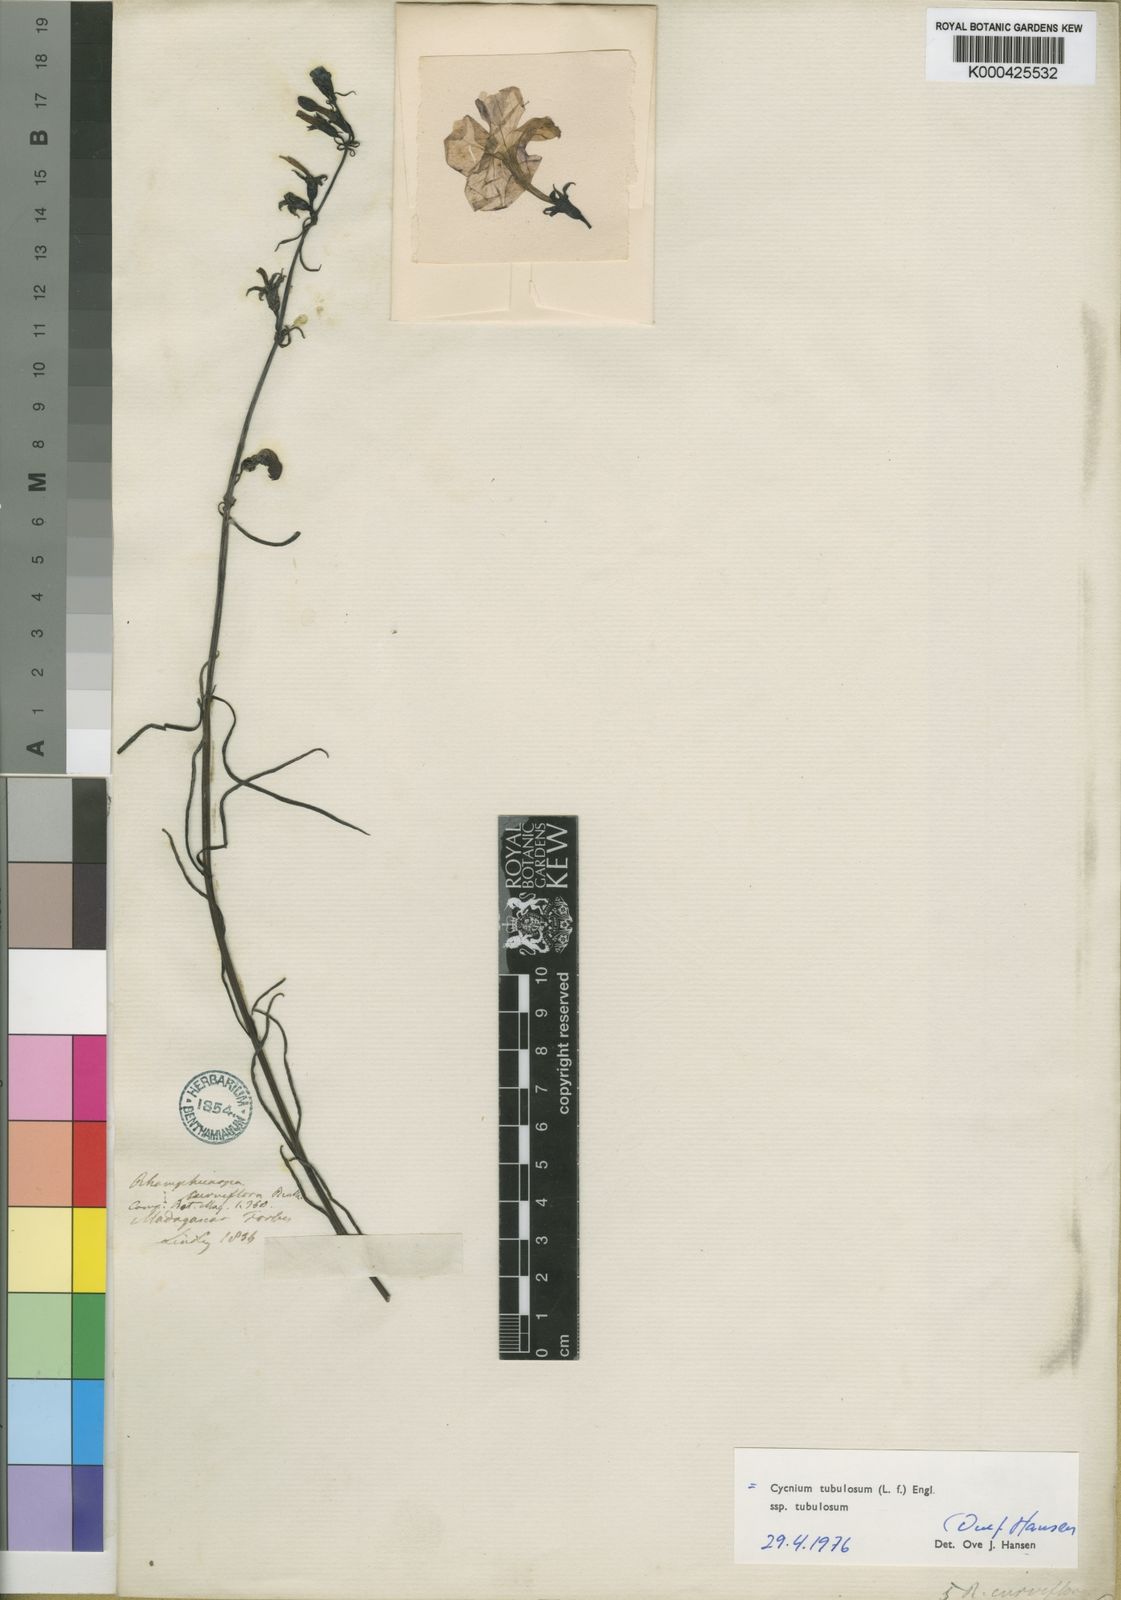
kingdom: Plantae
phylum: Tracheophyta
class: Magnoliopsida
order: Lamiales
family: Orobanchaceae
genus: Cycnium
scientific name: Cycnium tubulosum
